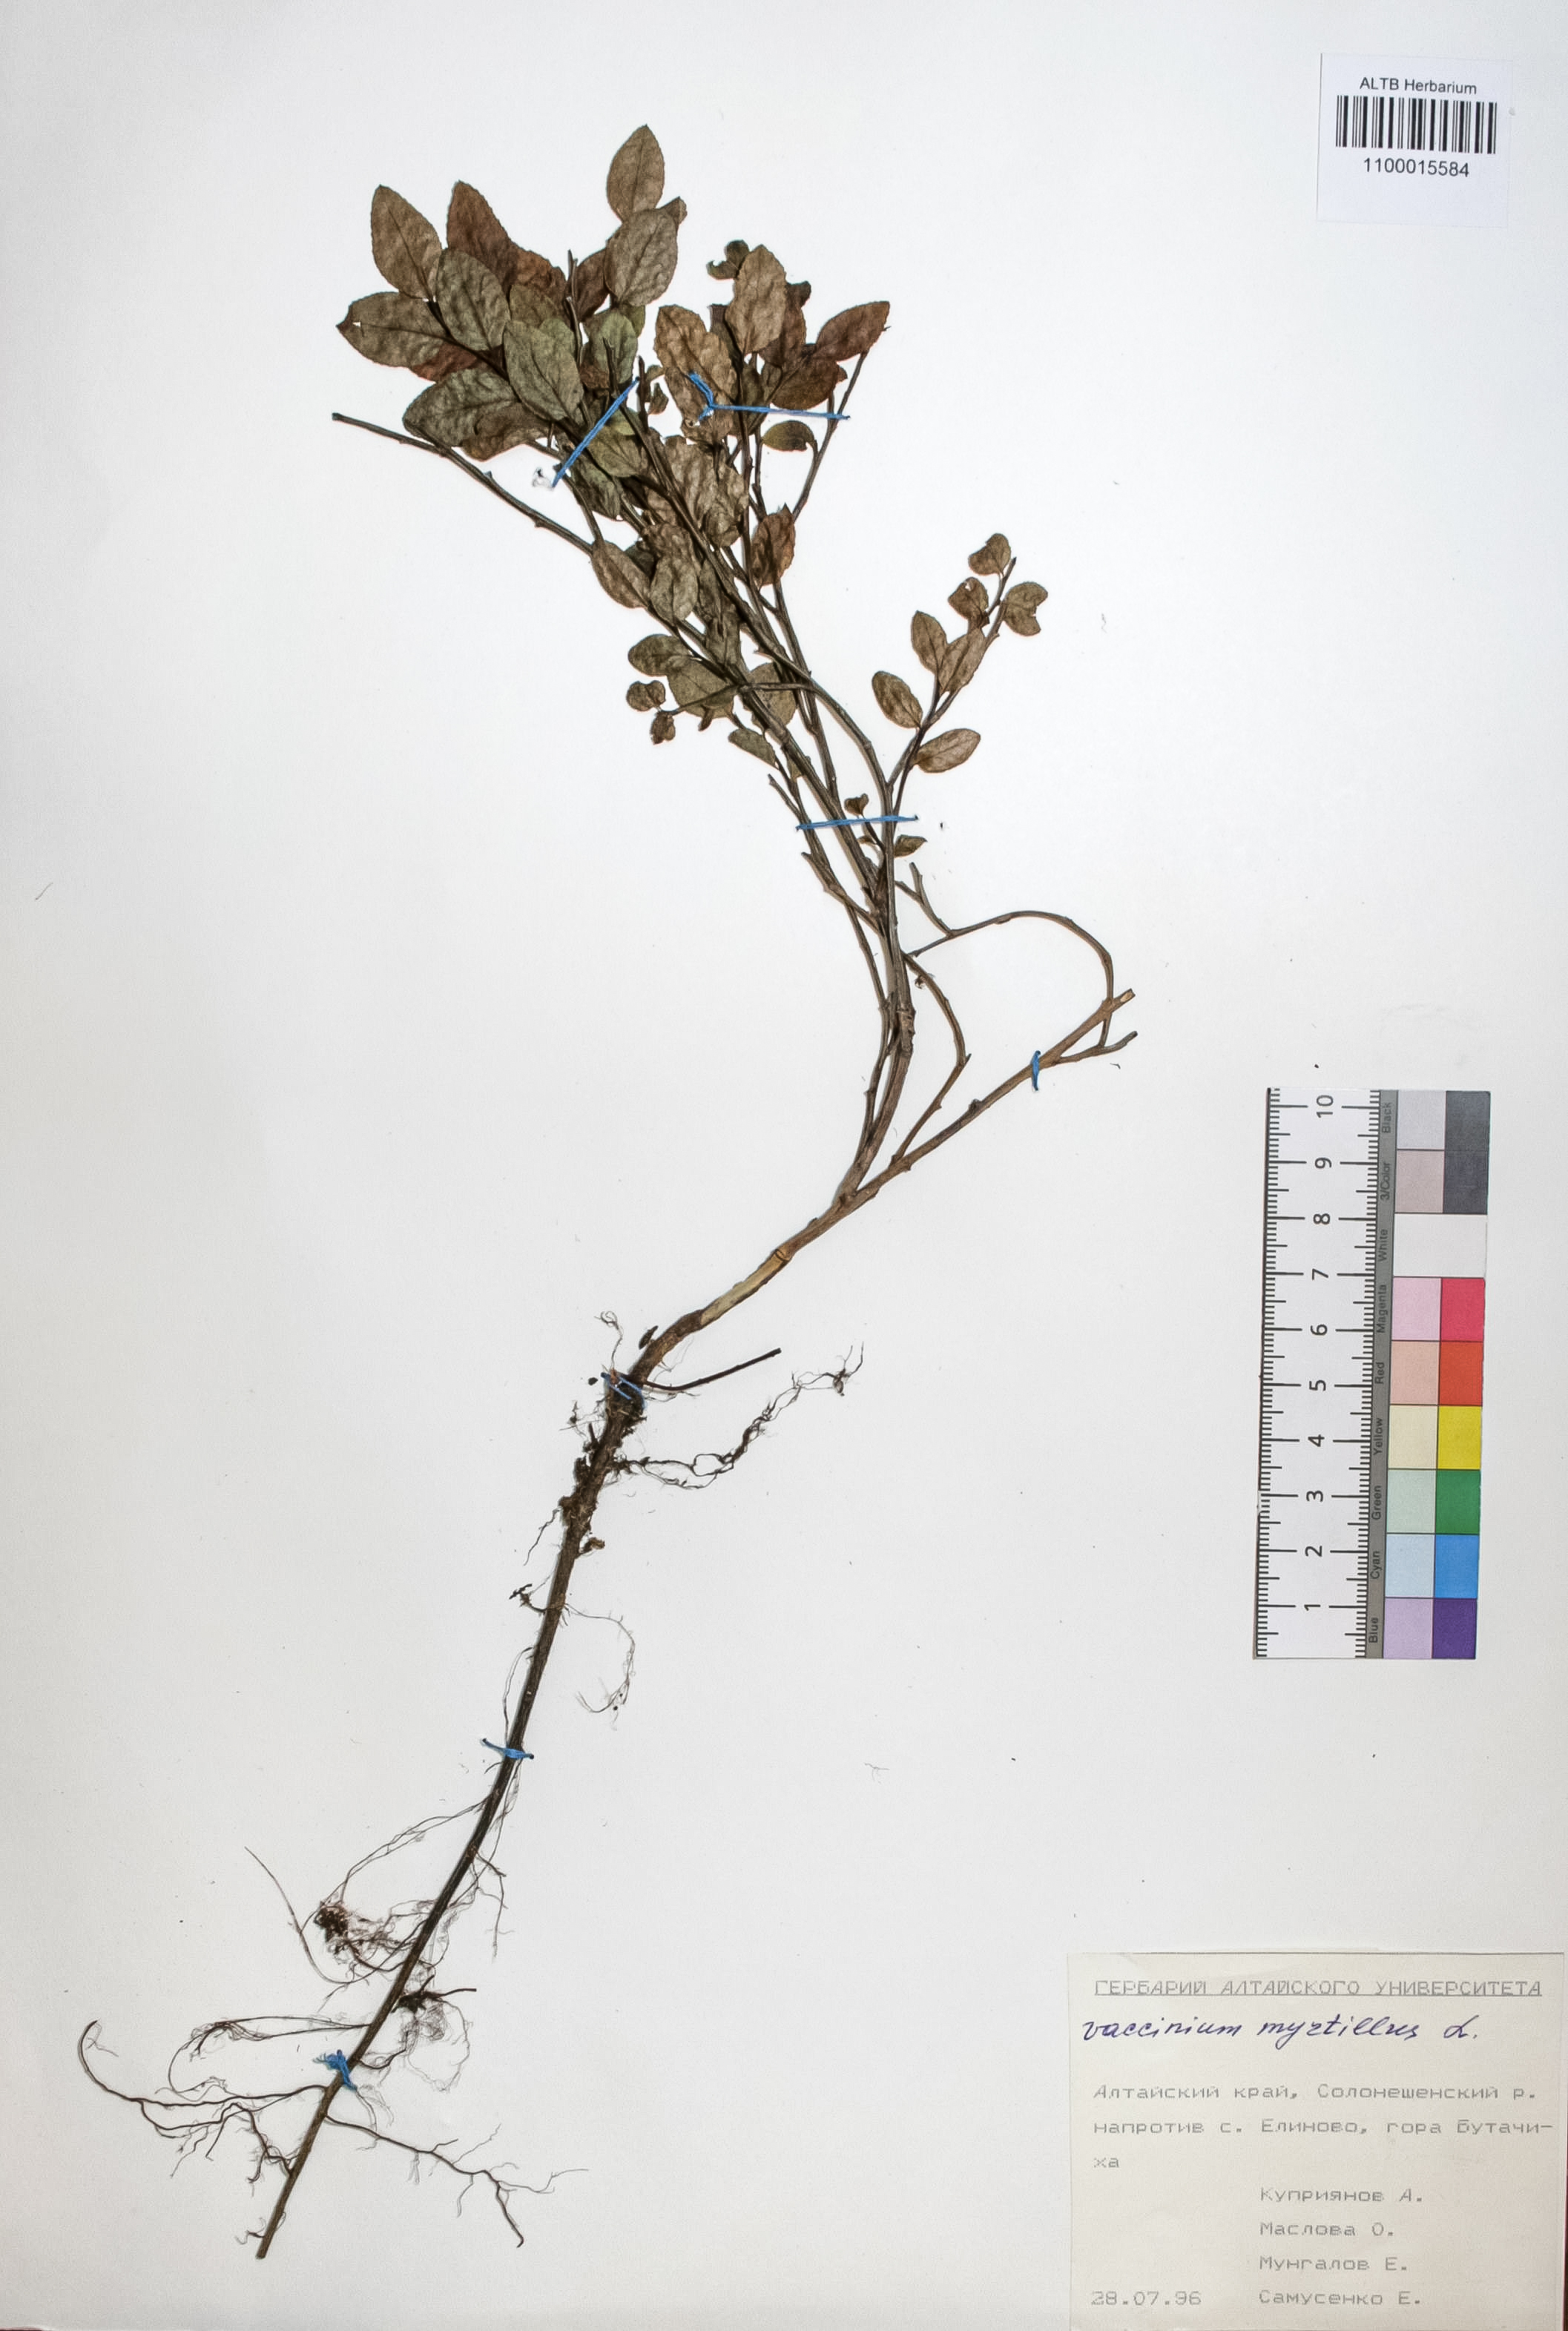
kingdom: Plantae
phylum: Tracheophyta
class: Magnoliopsida
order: Ericales
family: Ericaceae
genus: Vaccinium
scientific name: Vaccinium myrtillus
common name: Bilberry
